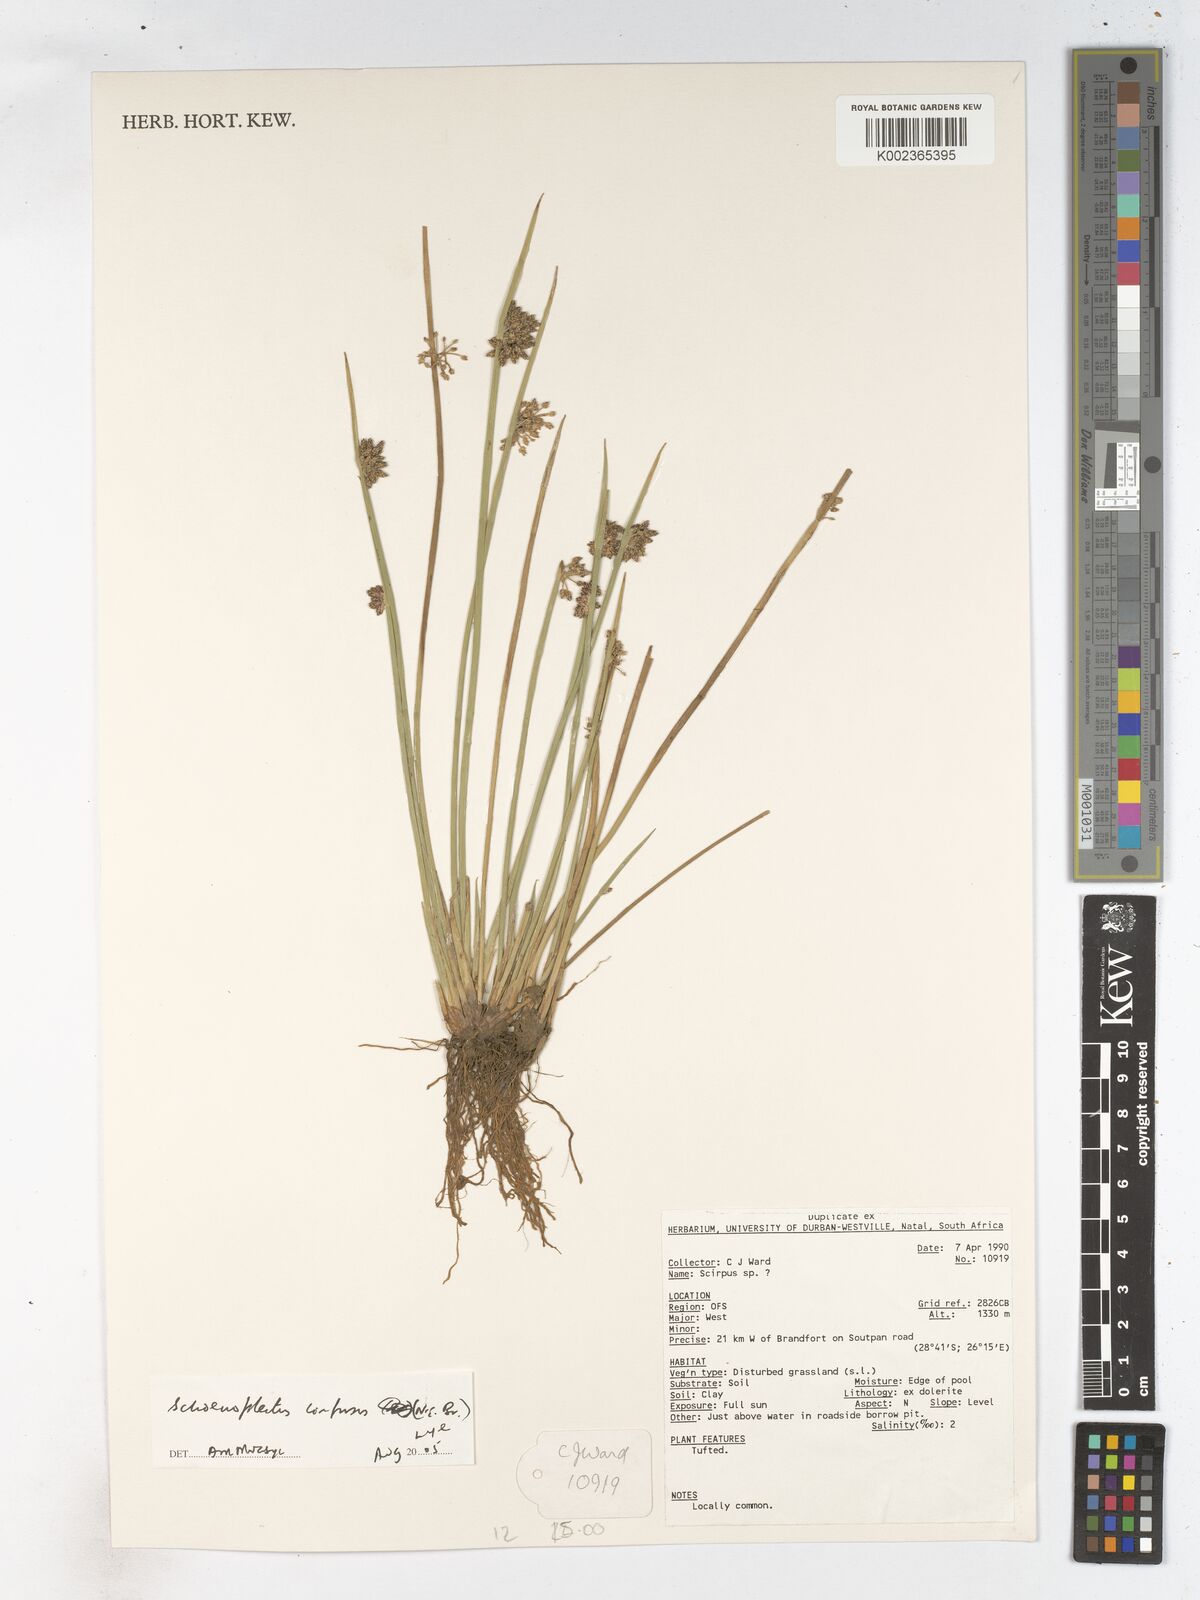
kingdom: Plantae
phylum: Tracheophyta
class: Liliopsida
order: Poales
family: Cyperaceae
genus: Schoenoplectiella
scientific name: Schoenoplectiella confusa
